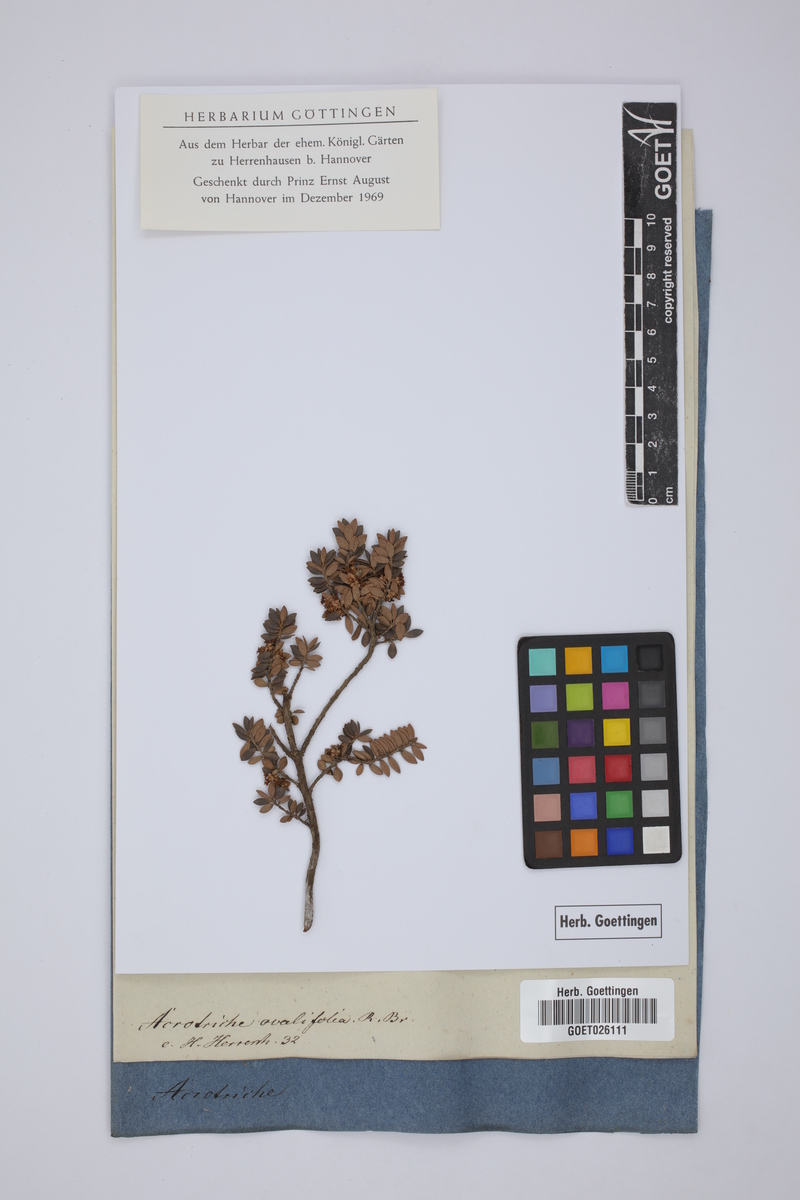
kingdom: Plantae
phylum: Tracheophyta
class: Magnoliopsida
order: Ericales
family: Ericaceae
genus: Acrotriche
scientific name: Acrotriche cordata
